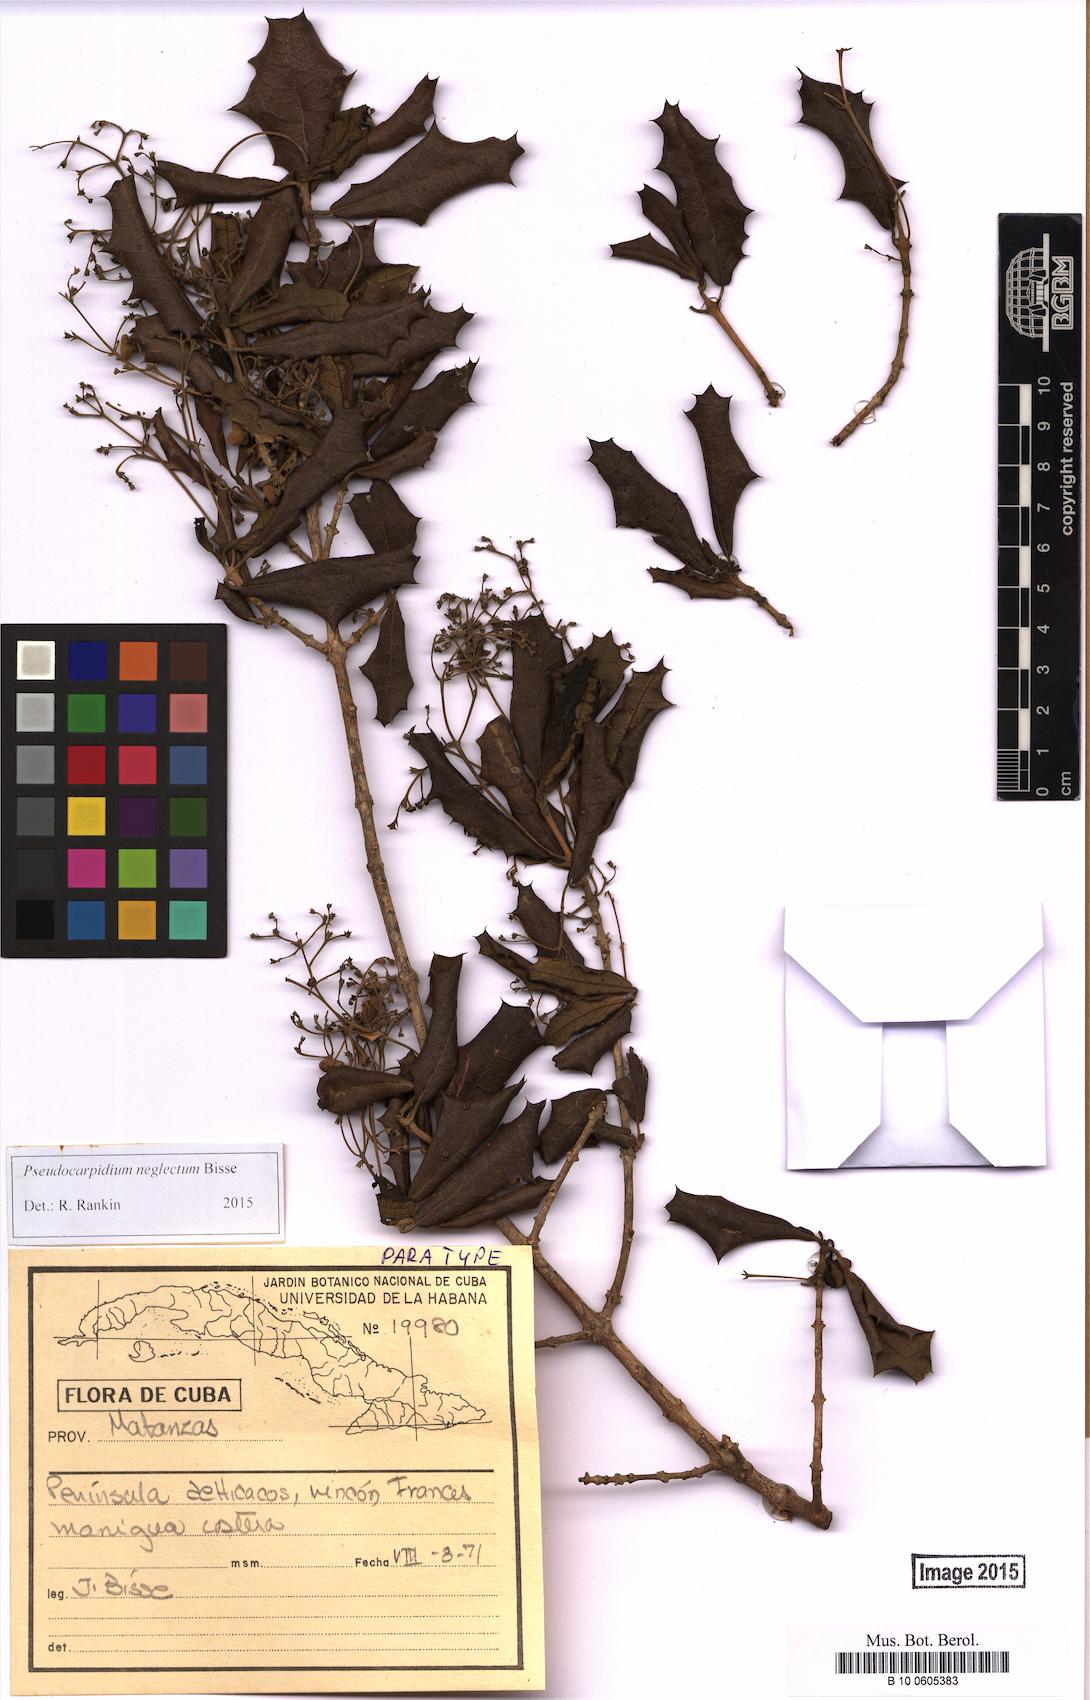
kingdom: Plantae
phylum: Tracheophyta
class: Magnoliopsida
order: Lamiales
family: Lamiaceae
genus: Pseudocarpidium
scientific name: Pseudocarpidium neglecta
